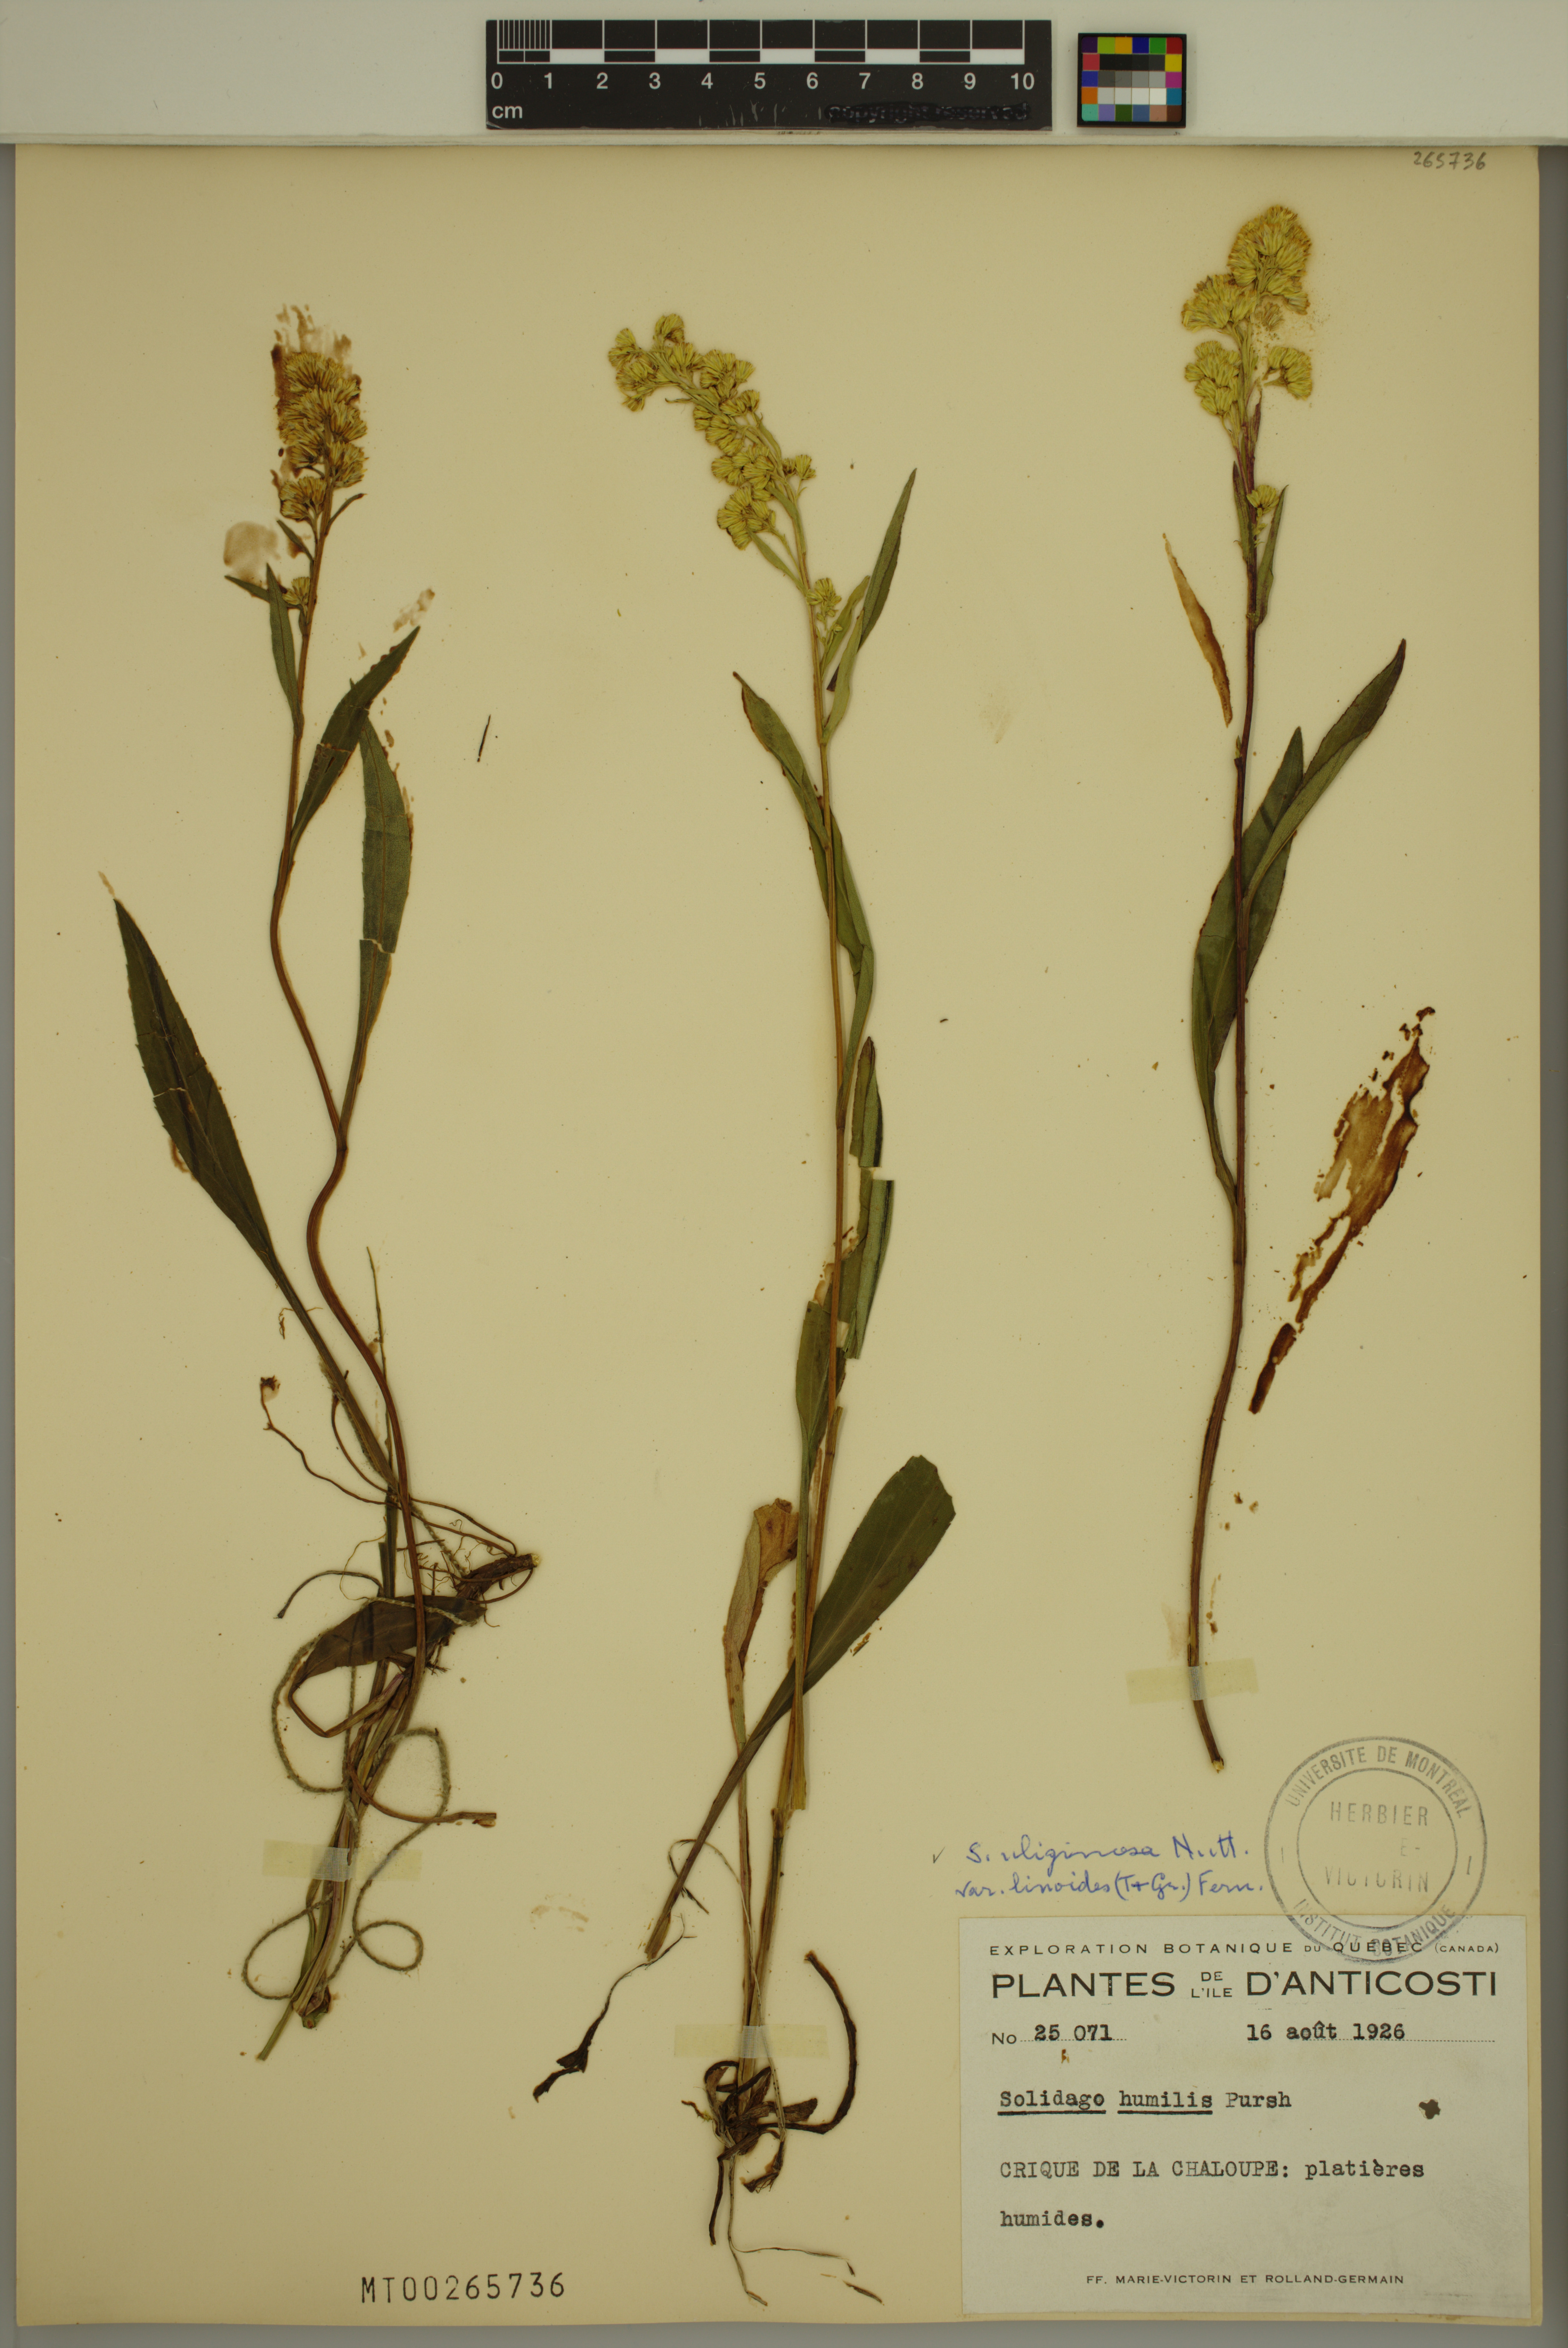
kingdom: Plantae
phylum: Tracheophyta
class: Magnoliopsida
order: Asterales
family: Asteraceae
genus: Solidago
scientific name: Solidago uliginosa
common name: Bog goldenrod
